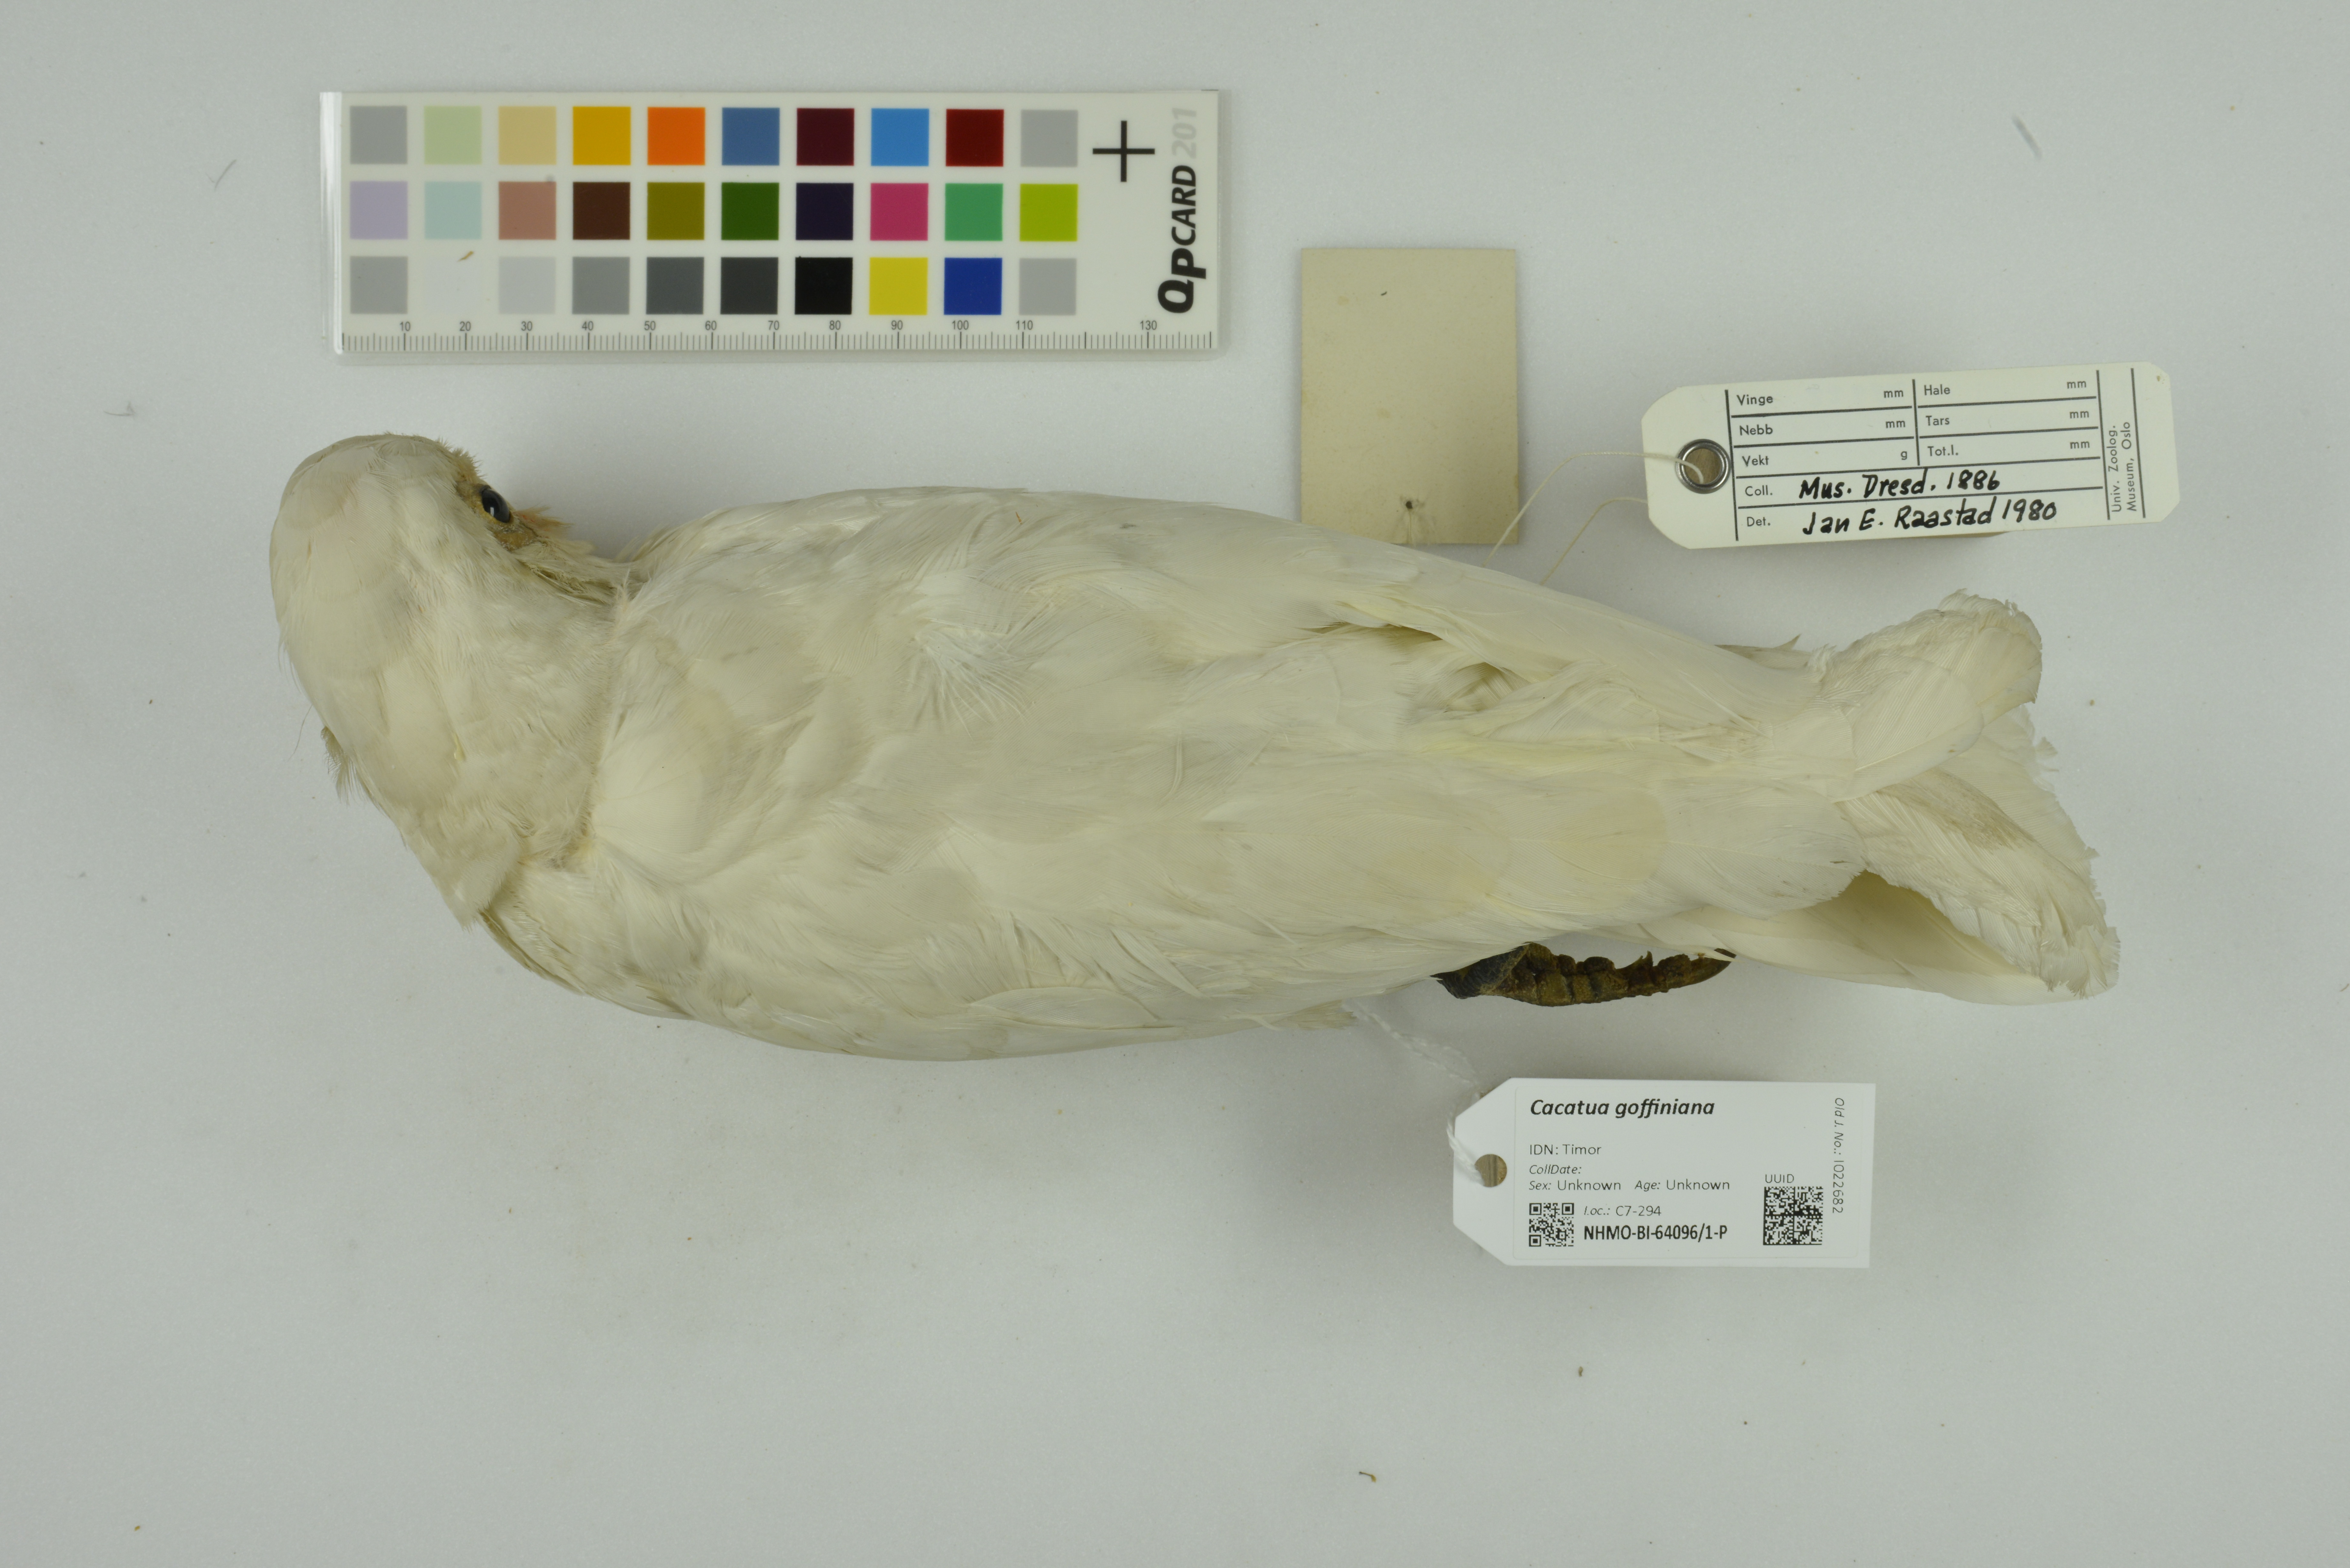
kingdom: Animalia
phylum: Chordata
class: Aves
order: Psittaciformes
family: Psittacidae
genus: Cacatua
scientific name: Cacatua goffiniana
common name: Tanimbar corella
